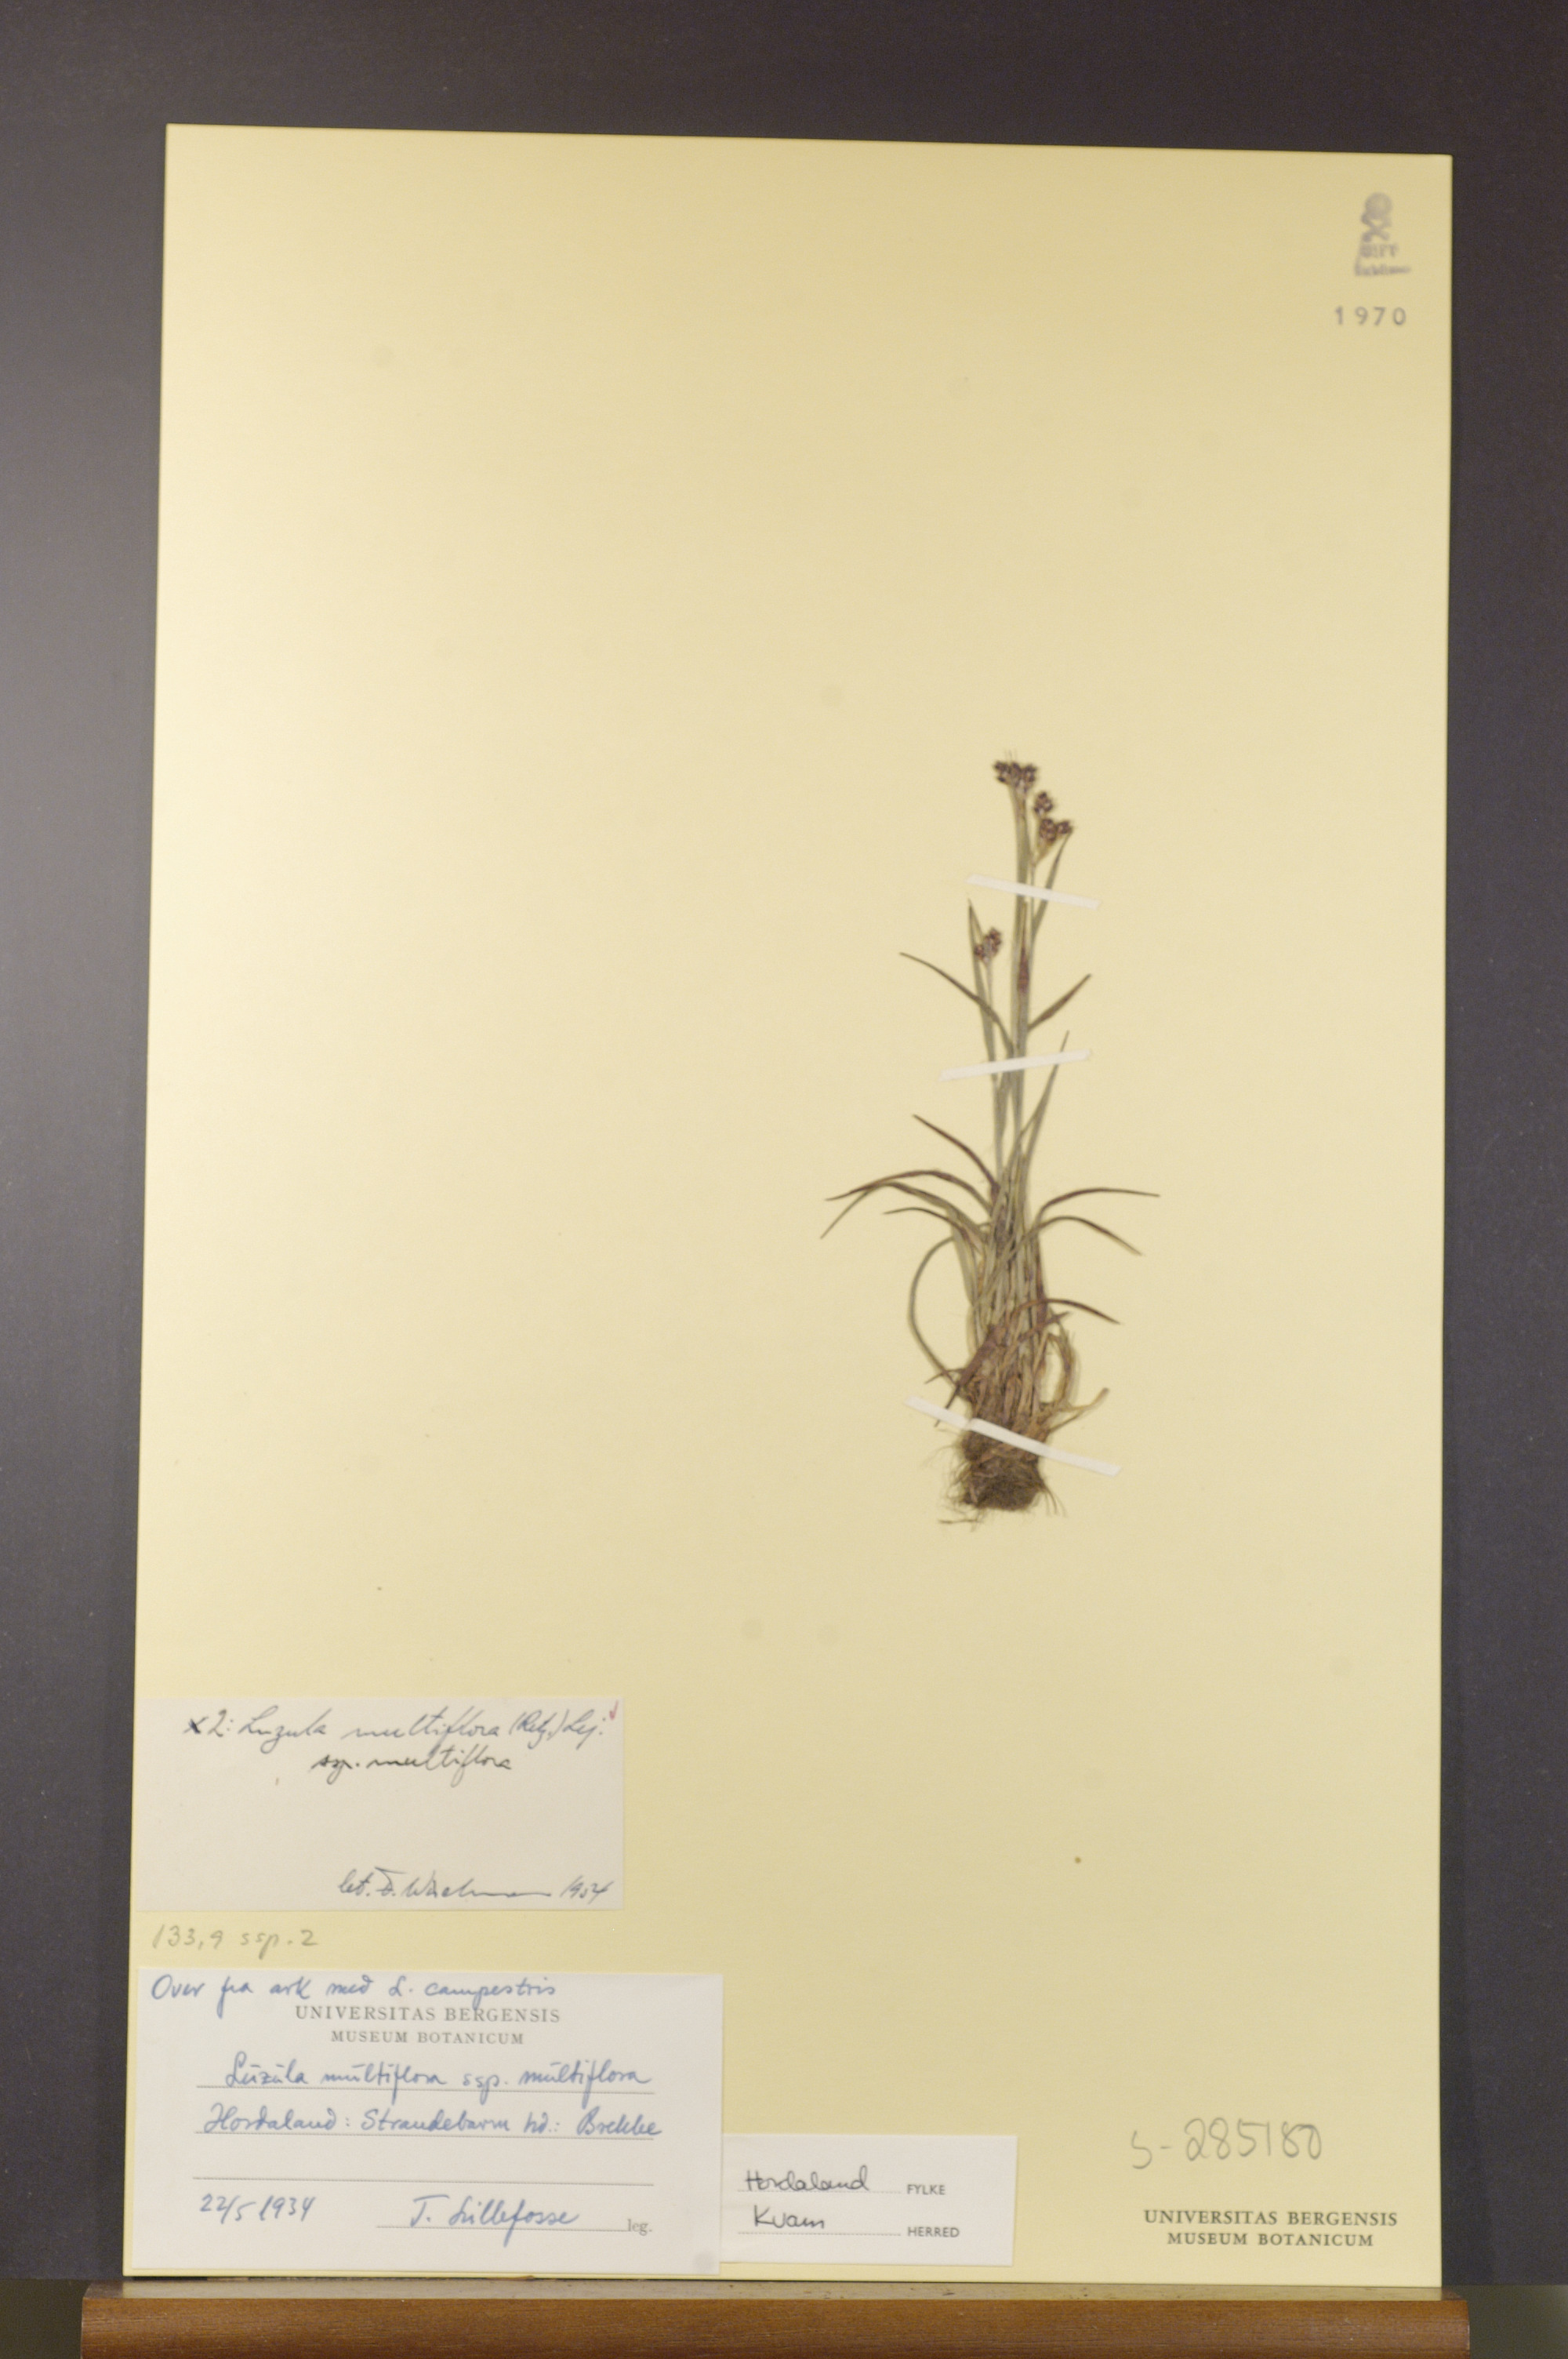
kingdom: Plantae
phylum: Tracheophyta
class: Liliopsida
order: Poales
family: Juncaceae
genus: Luzula
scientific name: Luzula multiflora
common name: Heath wood-rush
